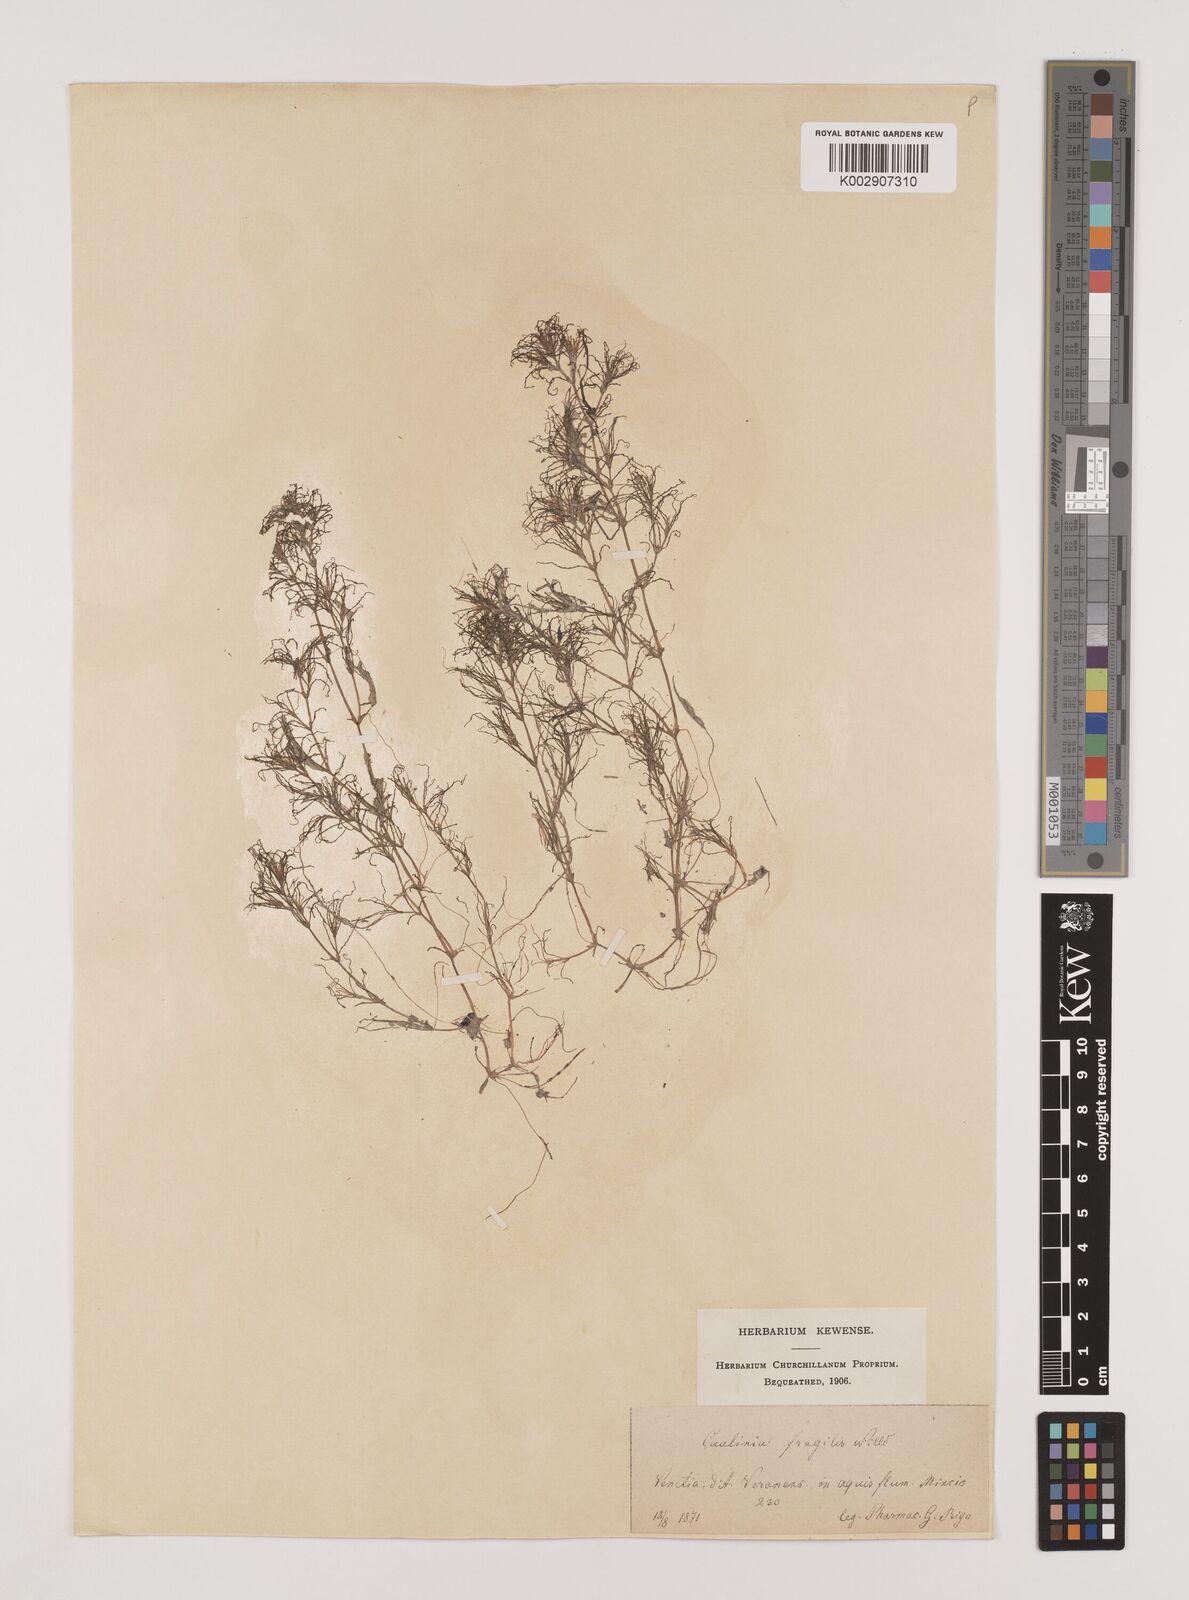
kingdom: Plantae
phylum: Tracheophyta
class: Liliopsida
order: Alismatales
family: Hydrocharitaceae
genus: Najas
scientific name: Najas minor
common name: Brittle naiad
